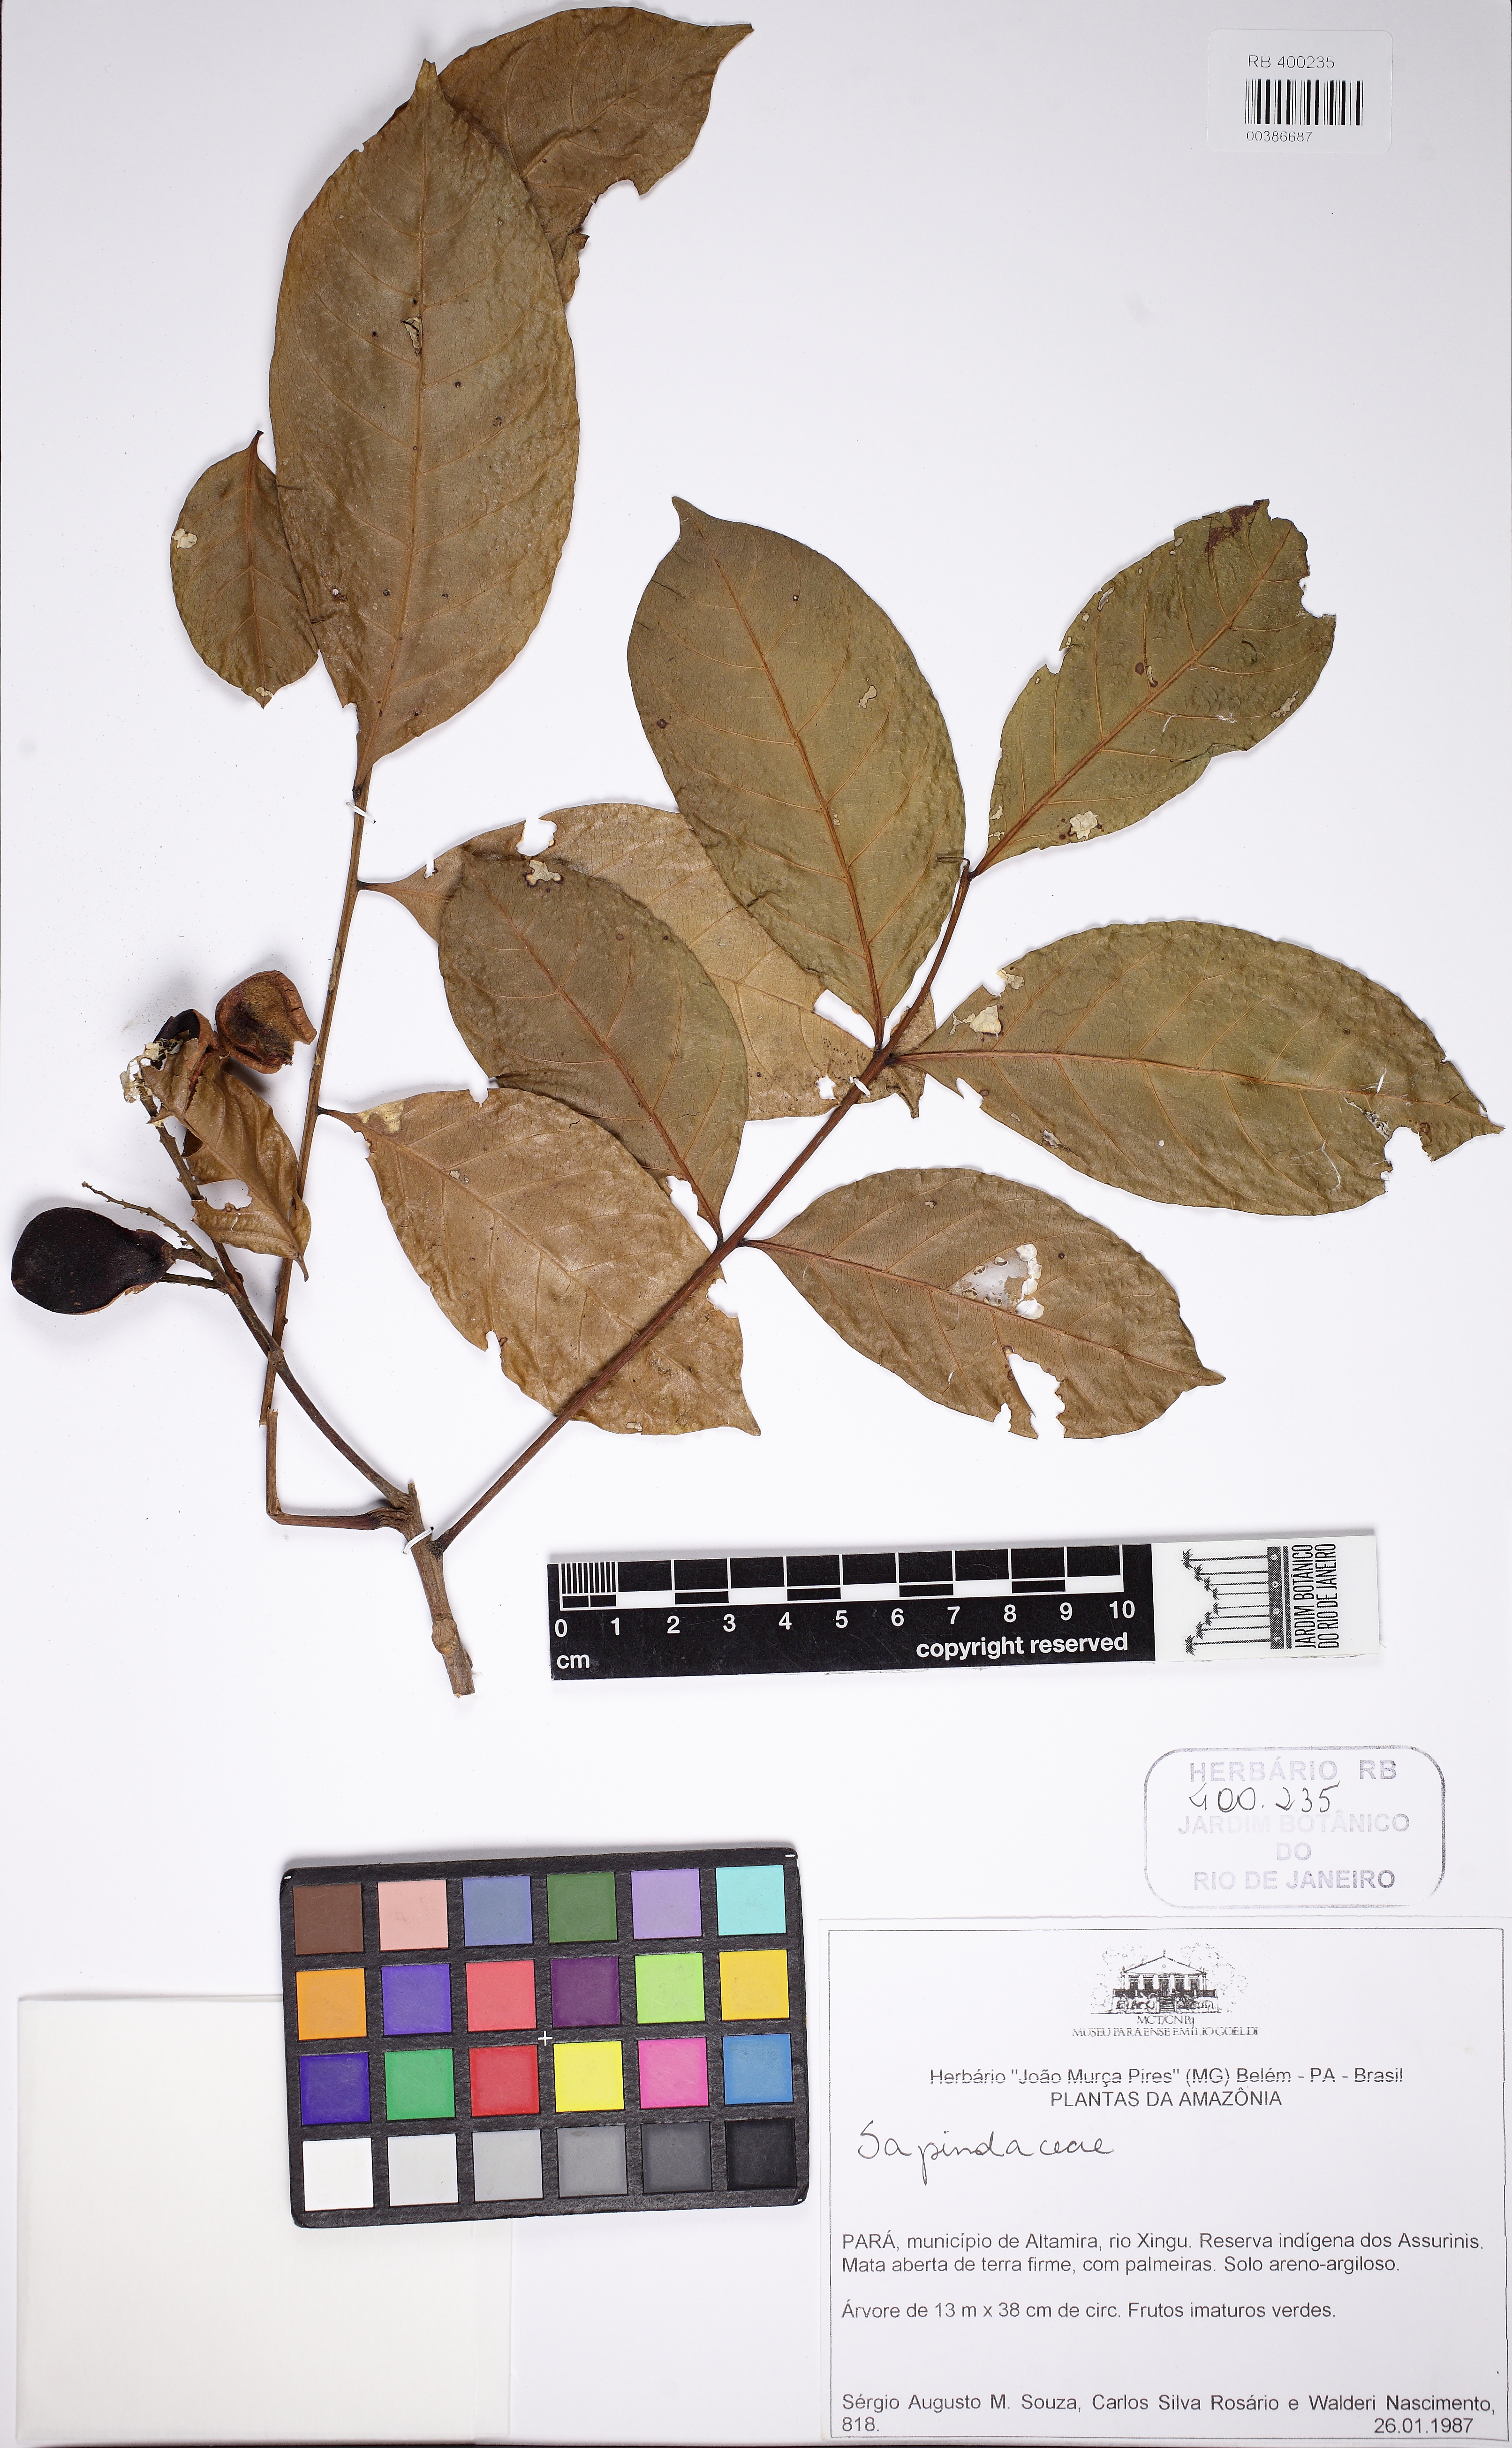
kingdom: Plantae
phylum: Tracheophyta
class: Magnoliopsida
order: Sapindales
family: Sapindaceae
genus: Vouarana
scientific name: Vouarana guianensis
